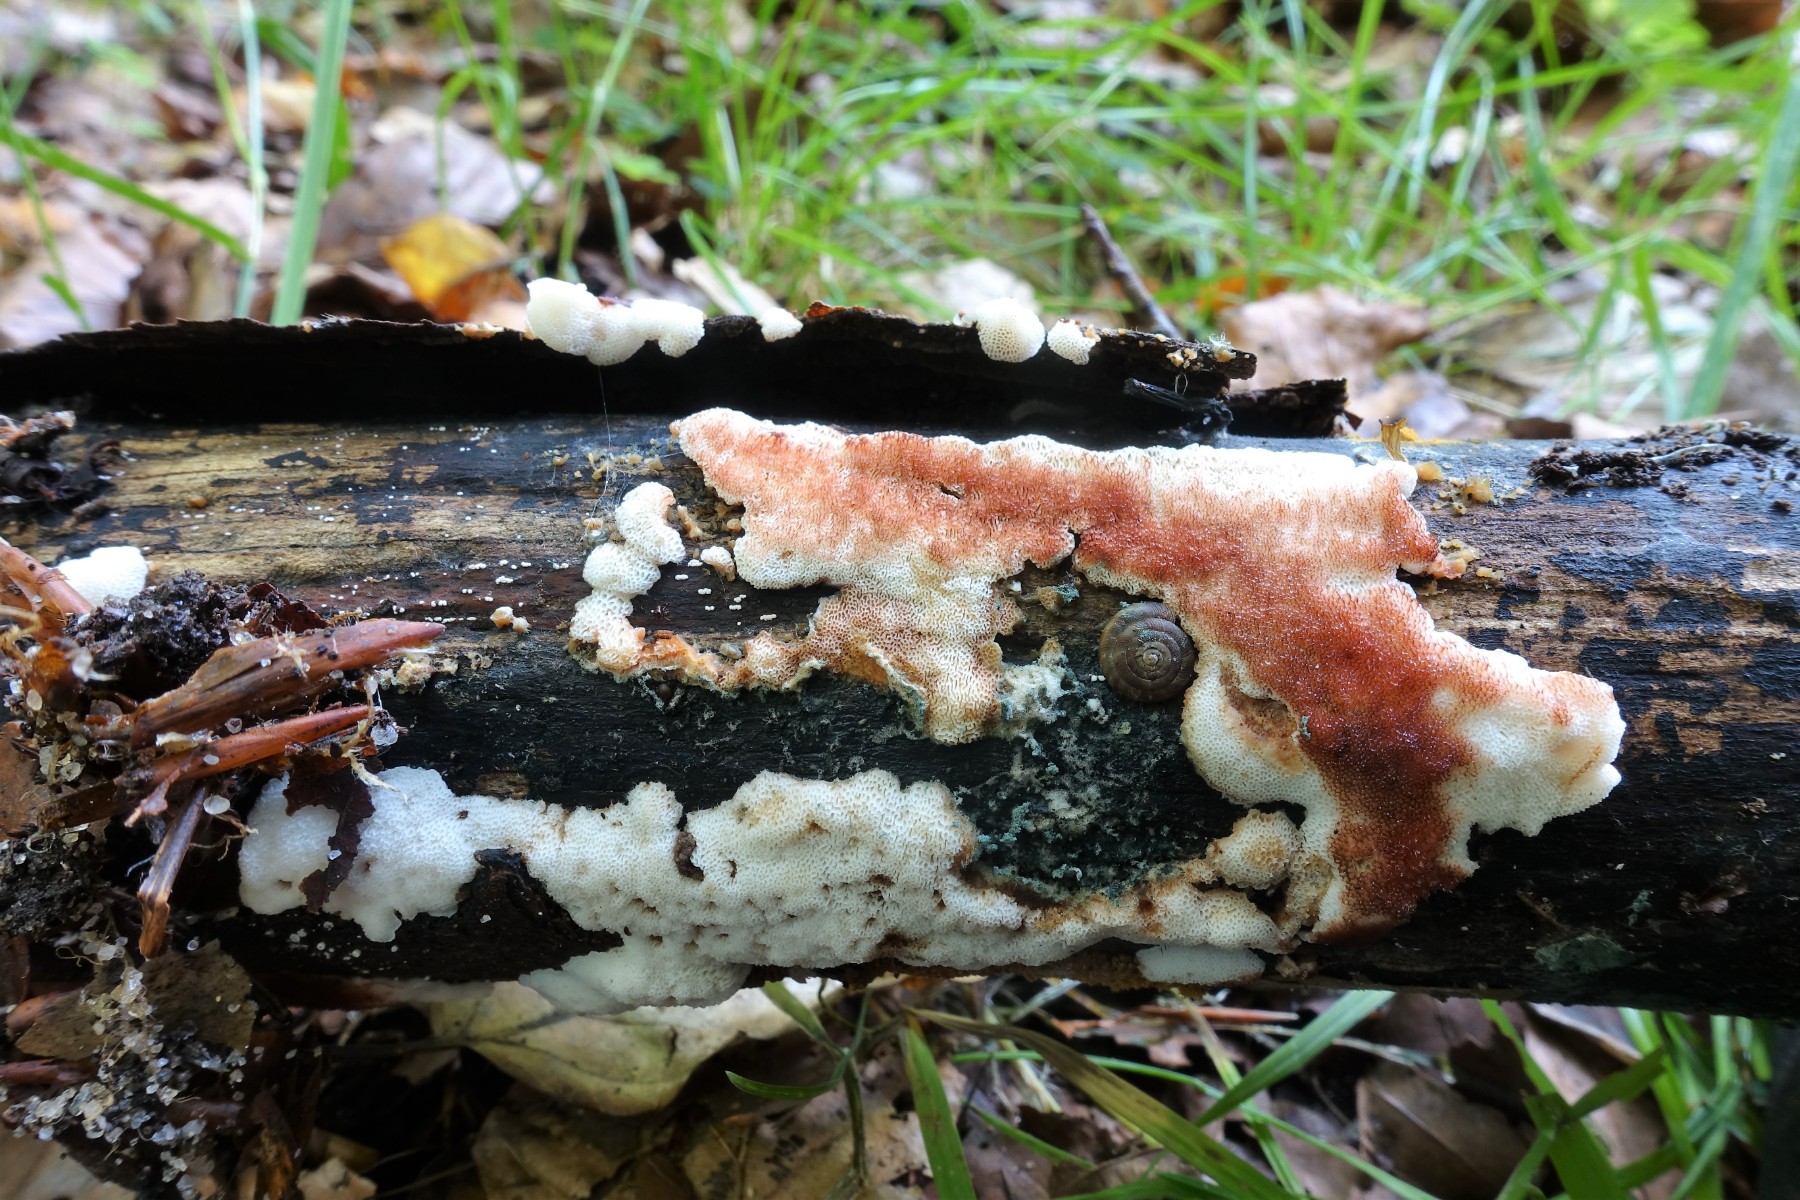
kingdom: Fungi
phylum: Basidiomycota
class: Agaricomycetes
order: Polyporales
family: Meripilaceae
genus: Rigidoporus
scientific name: Rigidoporus sanguinolentus
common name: blod-skorpeporesvamp
